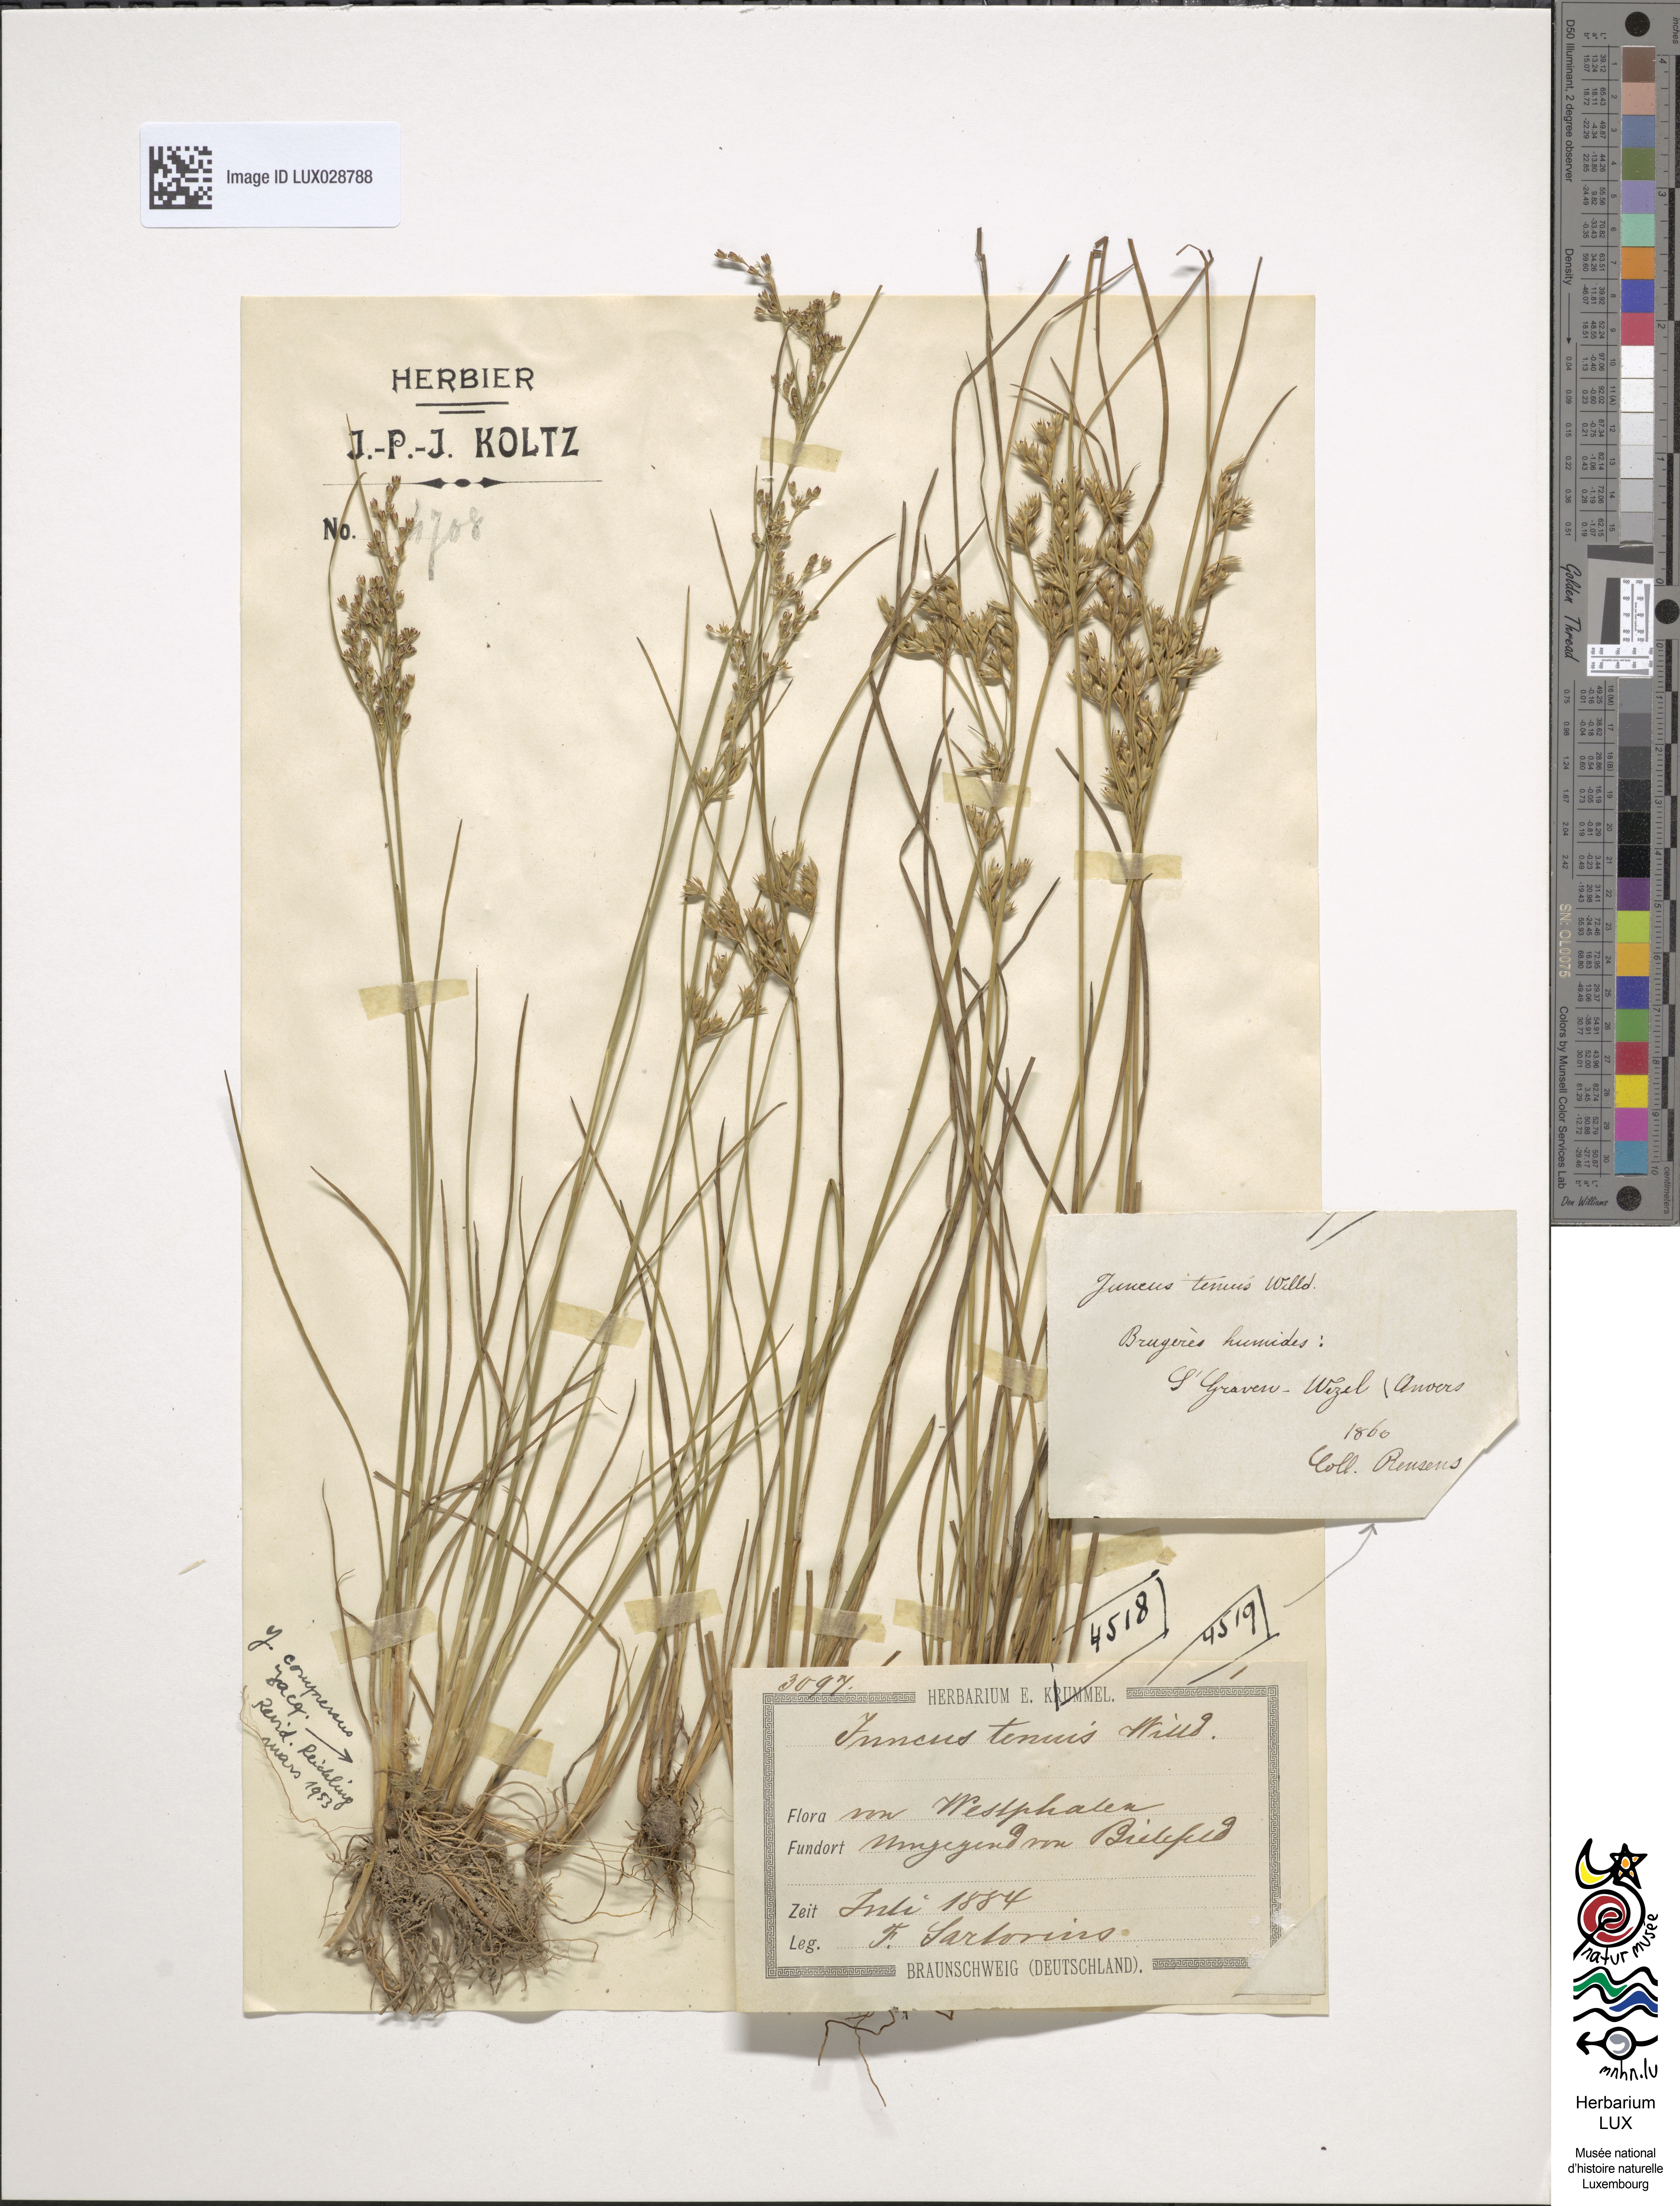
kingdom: Plantae
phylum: Tracheophyta
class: Liliopsida
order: Poales
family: Juncaceae
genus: Juncus
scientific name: Juncus tenuis
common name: Slender rush
